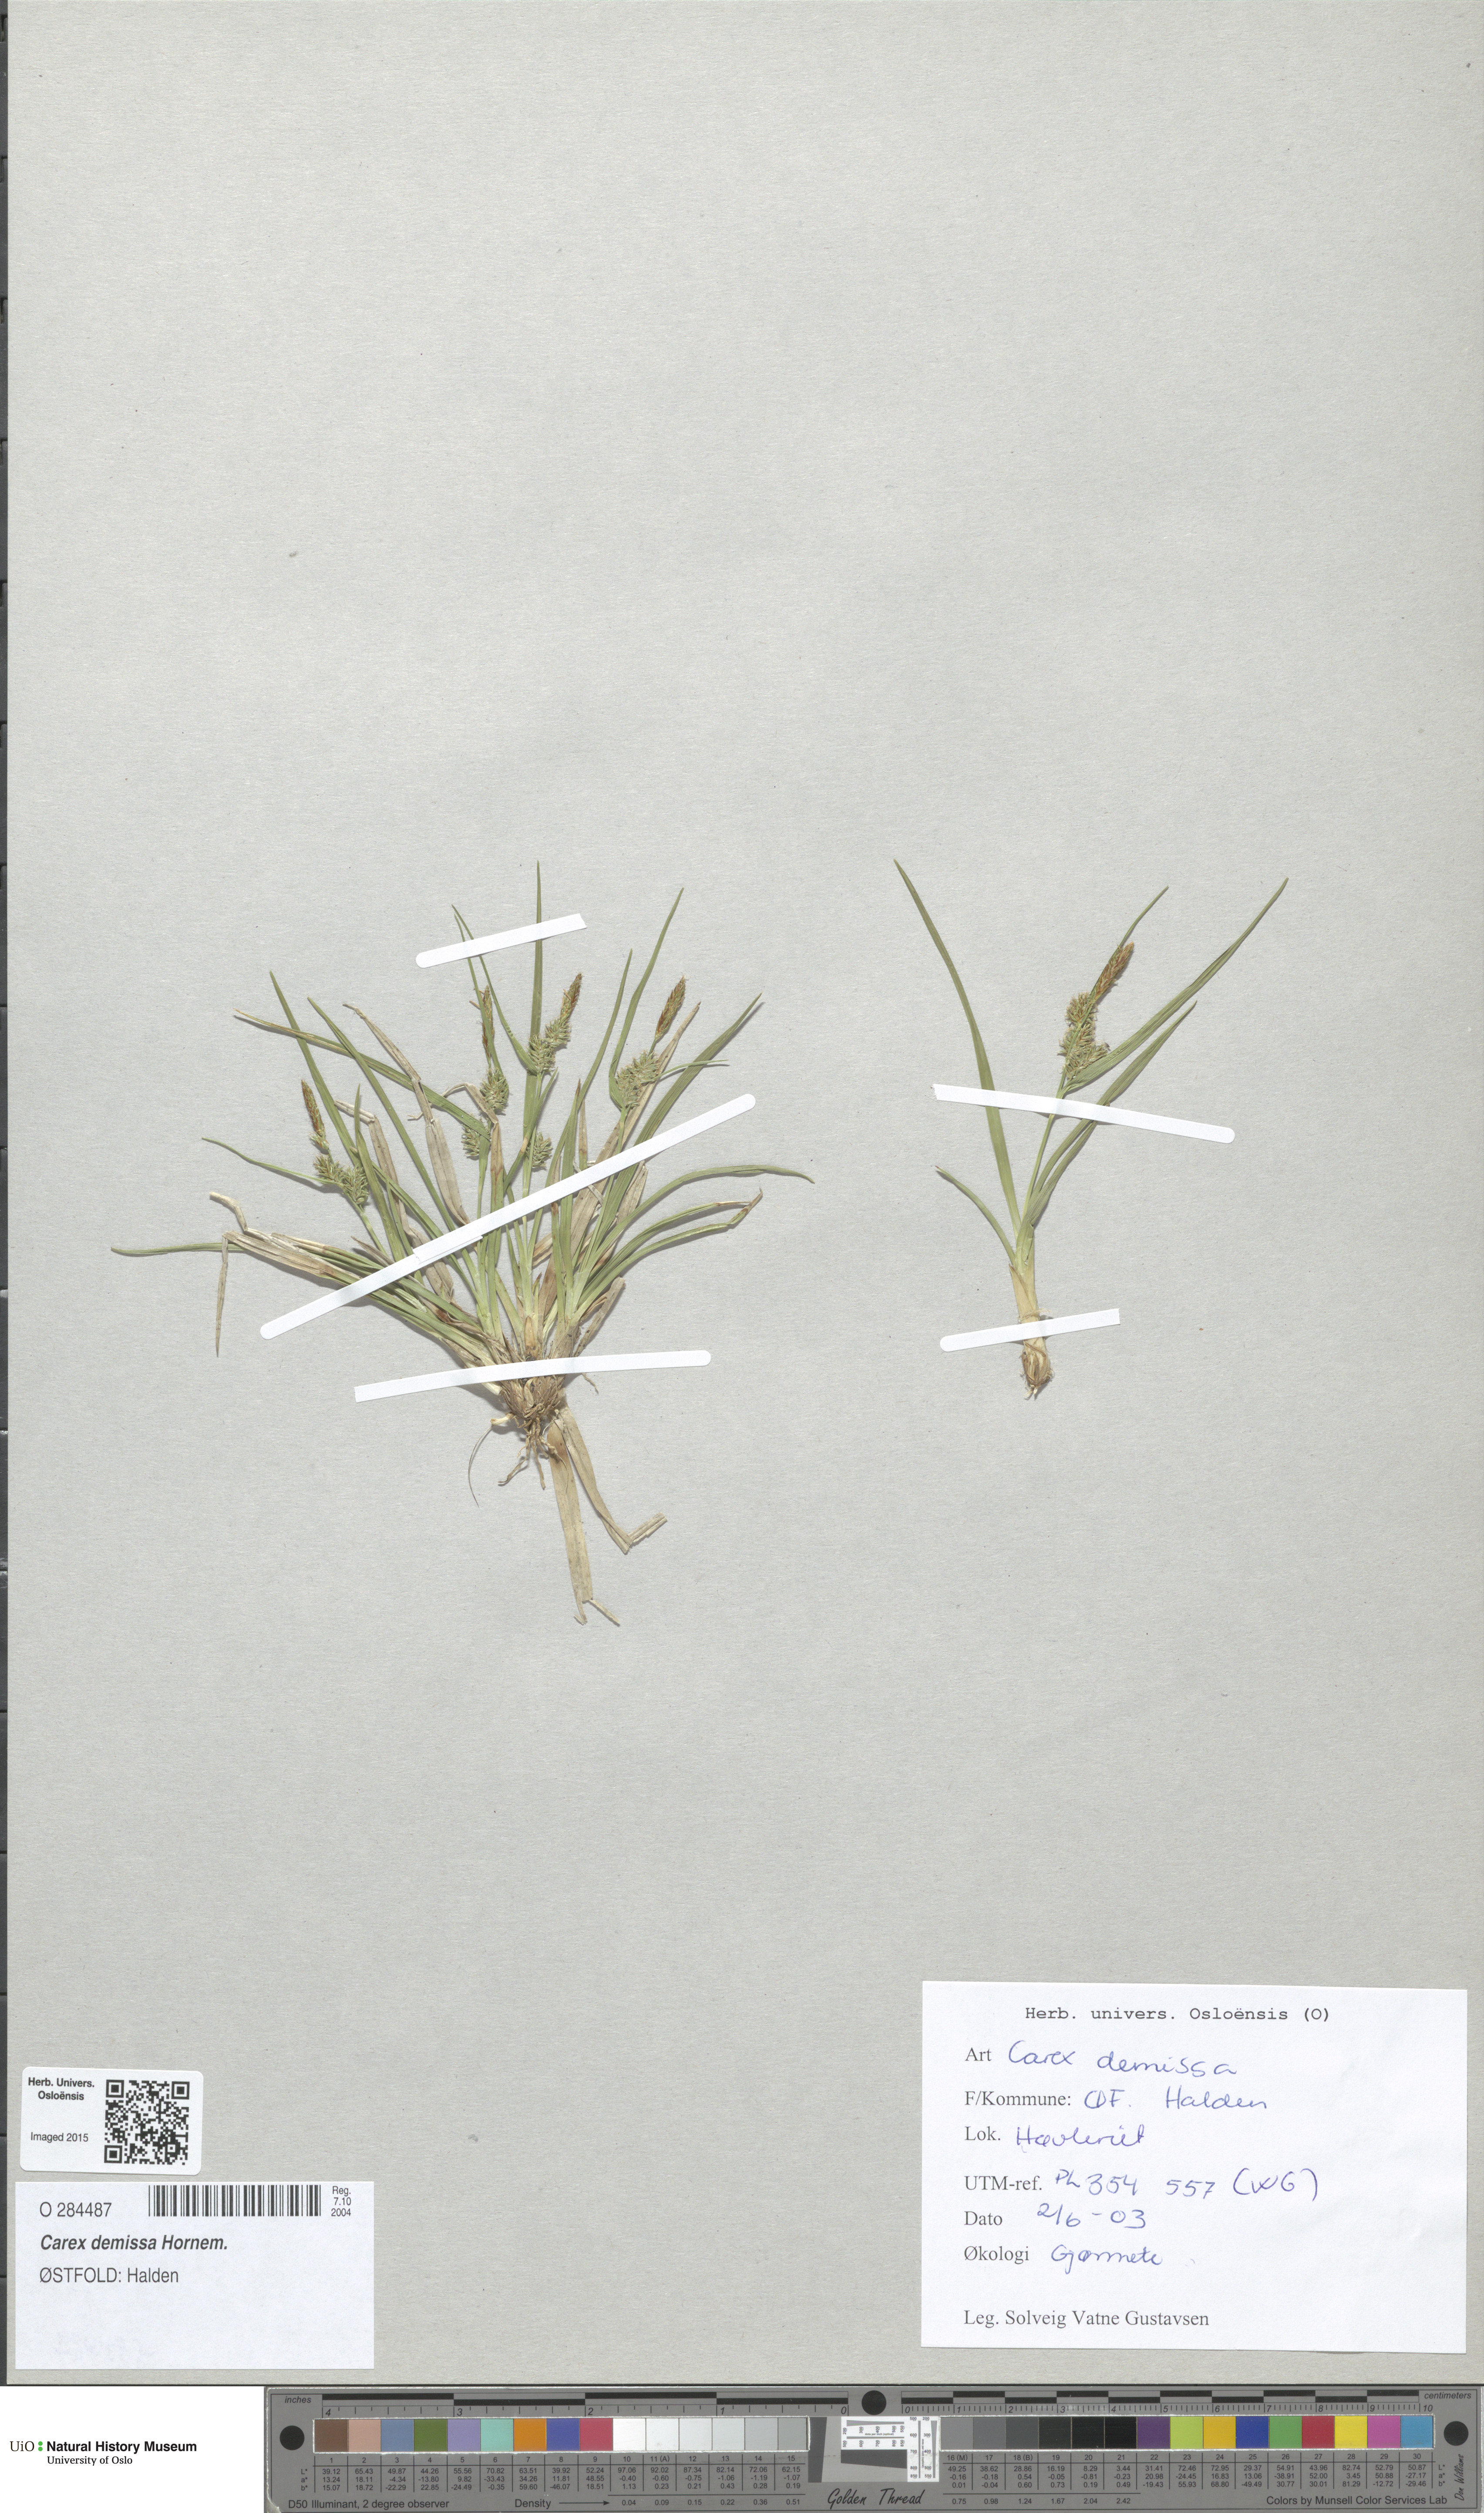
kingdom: Plantae
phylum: Tracheophyta
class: Liliopsida
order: Poales
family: Cyperaceae
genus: Carex
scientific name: Carex demissa
